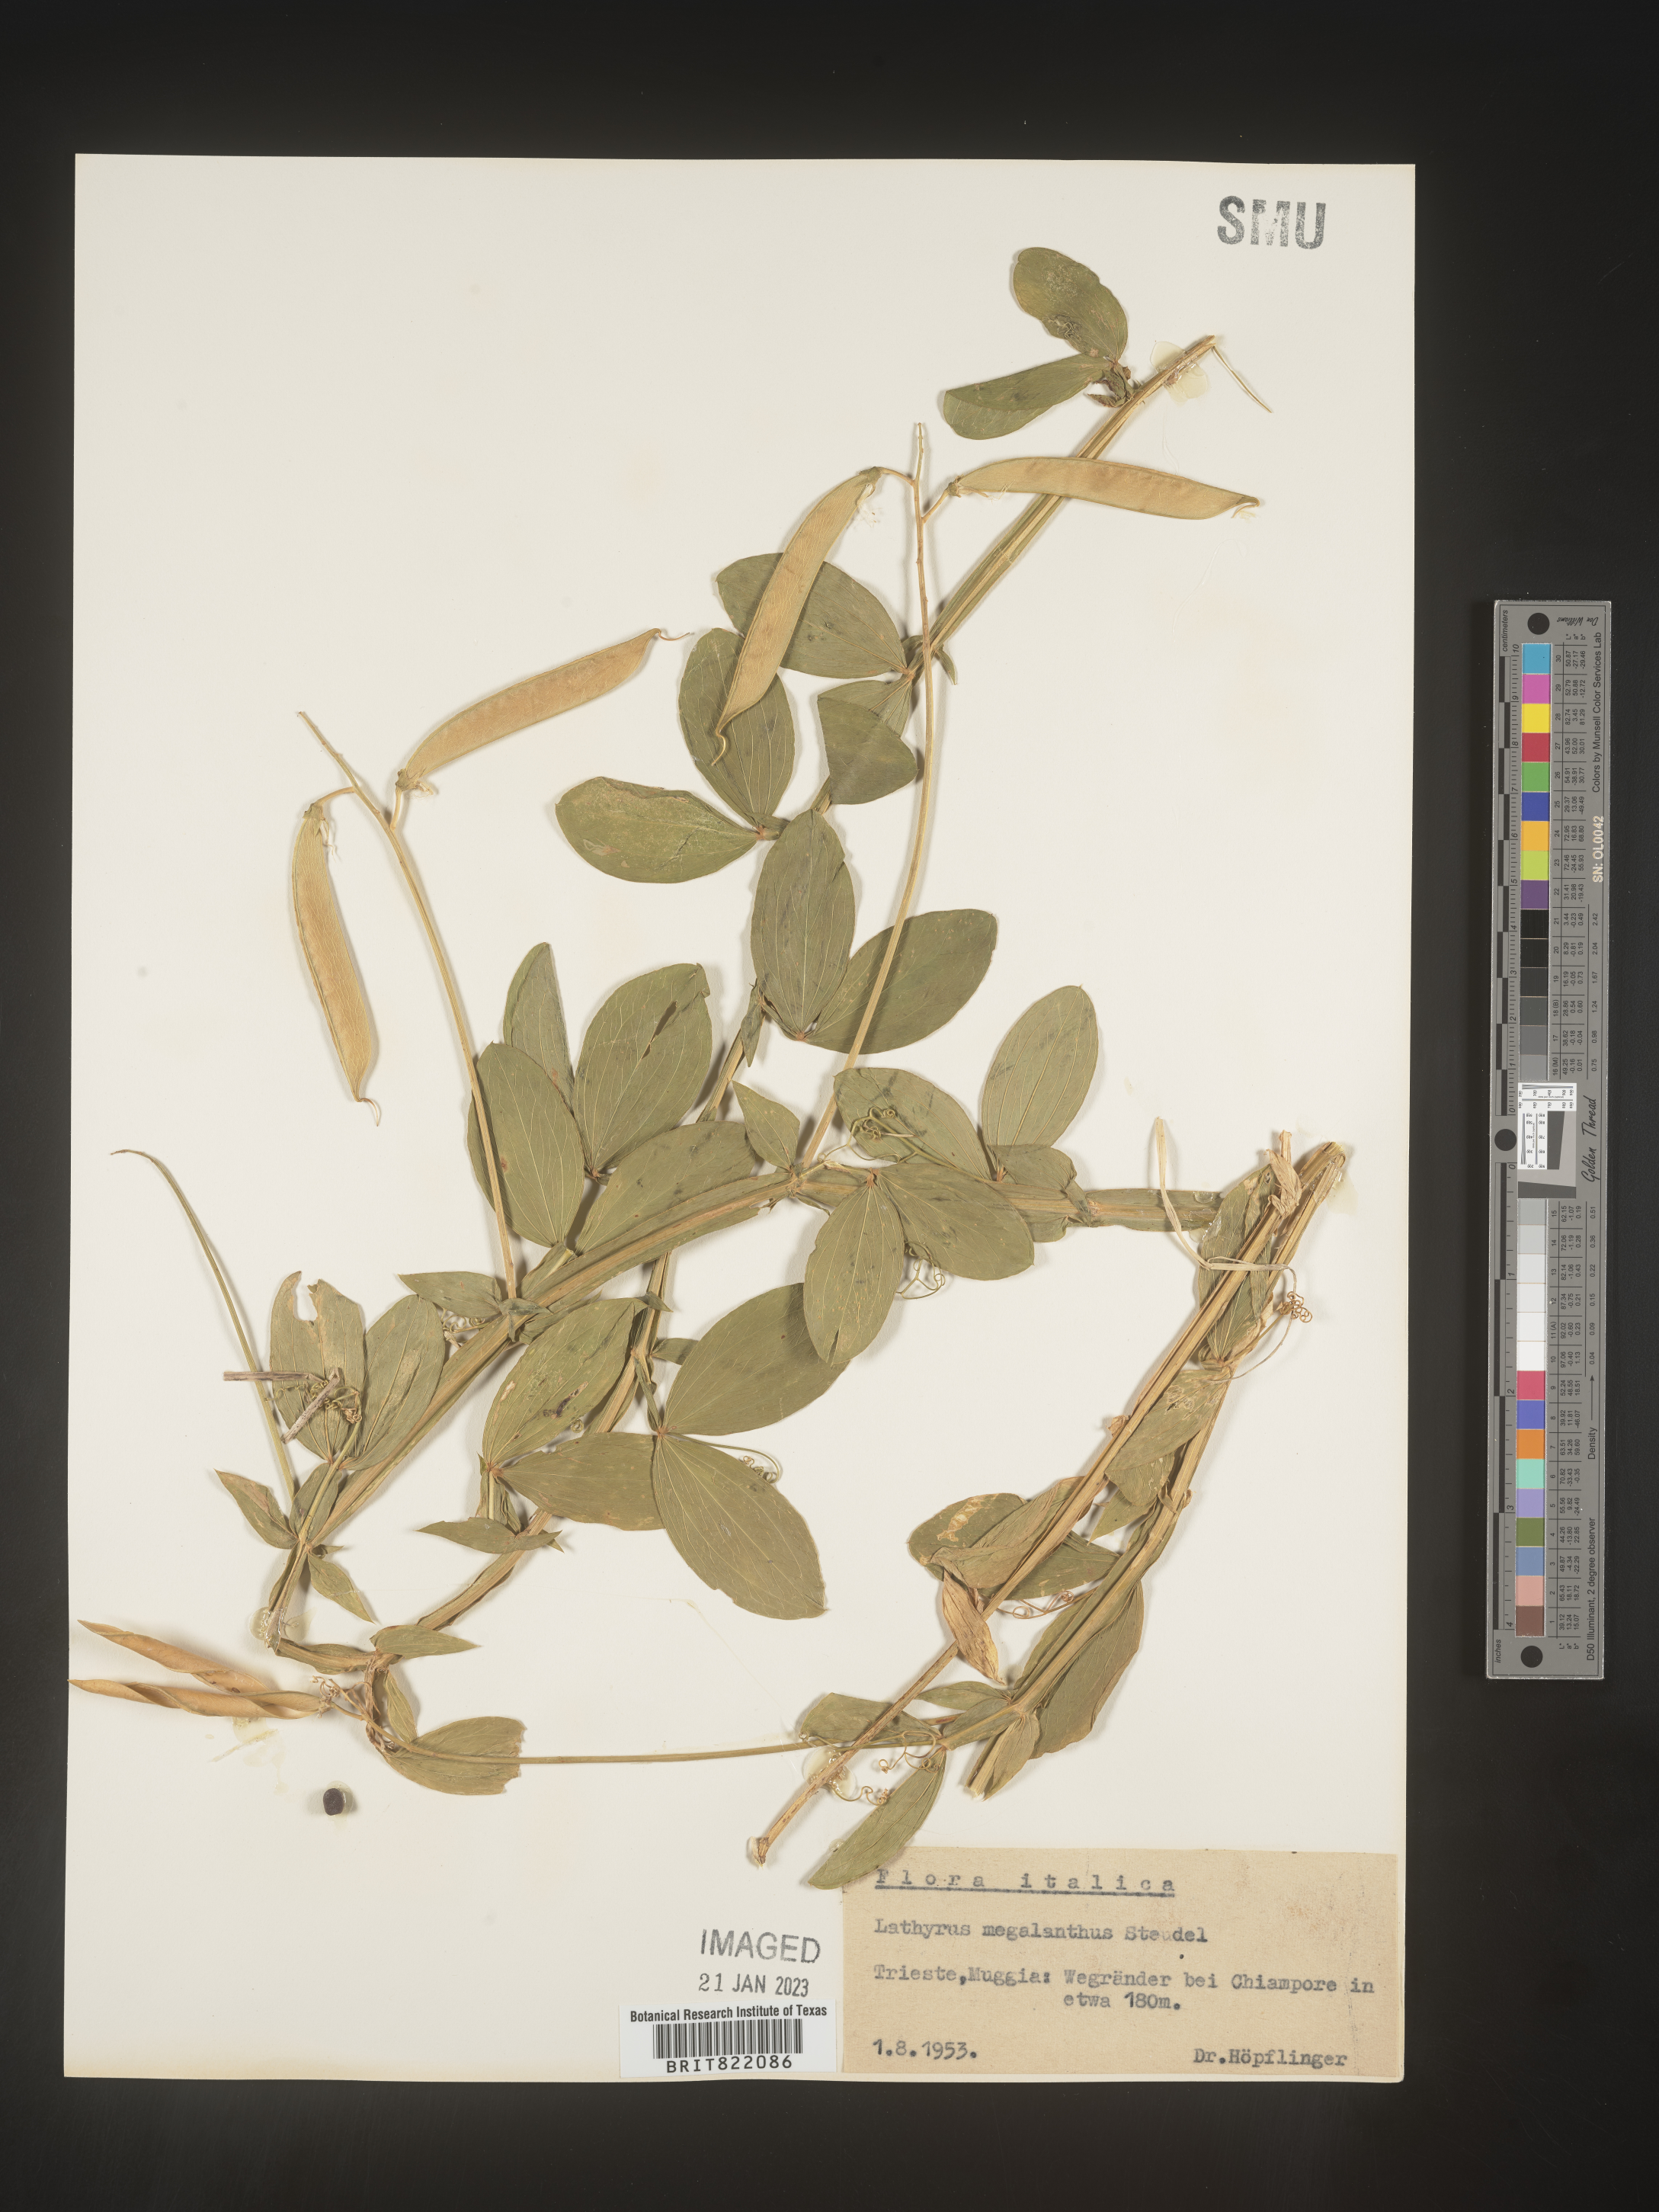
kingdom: Plantae
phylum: Tracheophyta
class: Magnoliopsida
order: Fabales
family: Fabaceae
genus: Lathyrus
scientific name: Lathyrus
